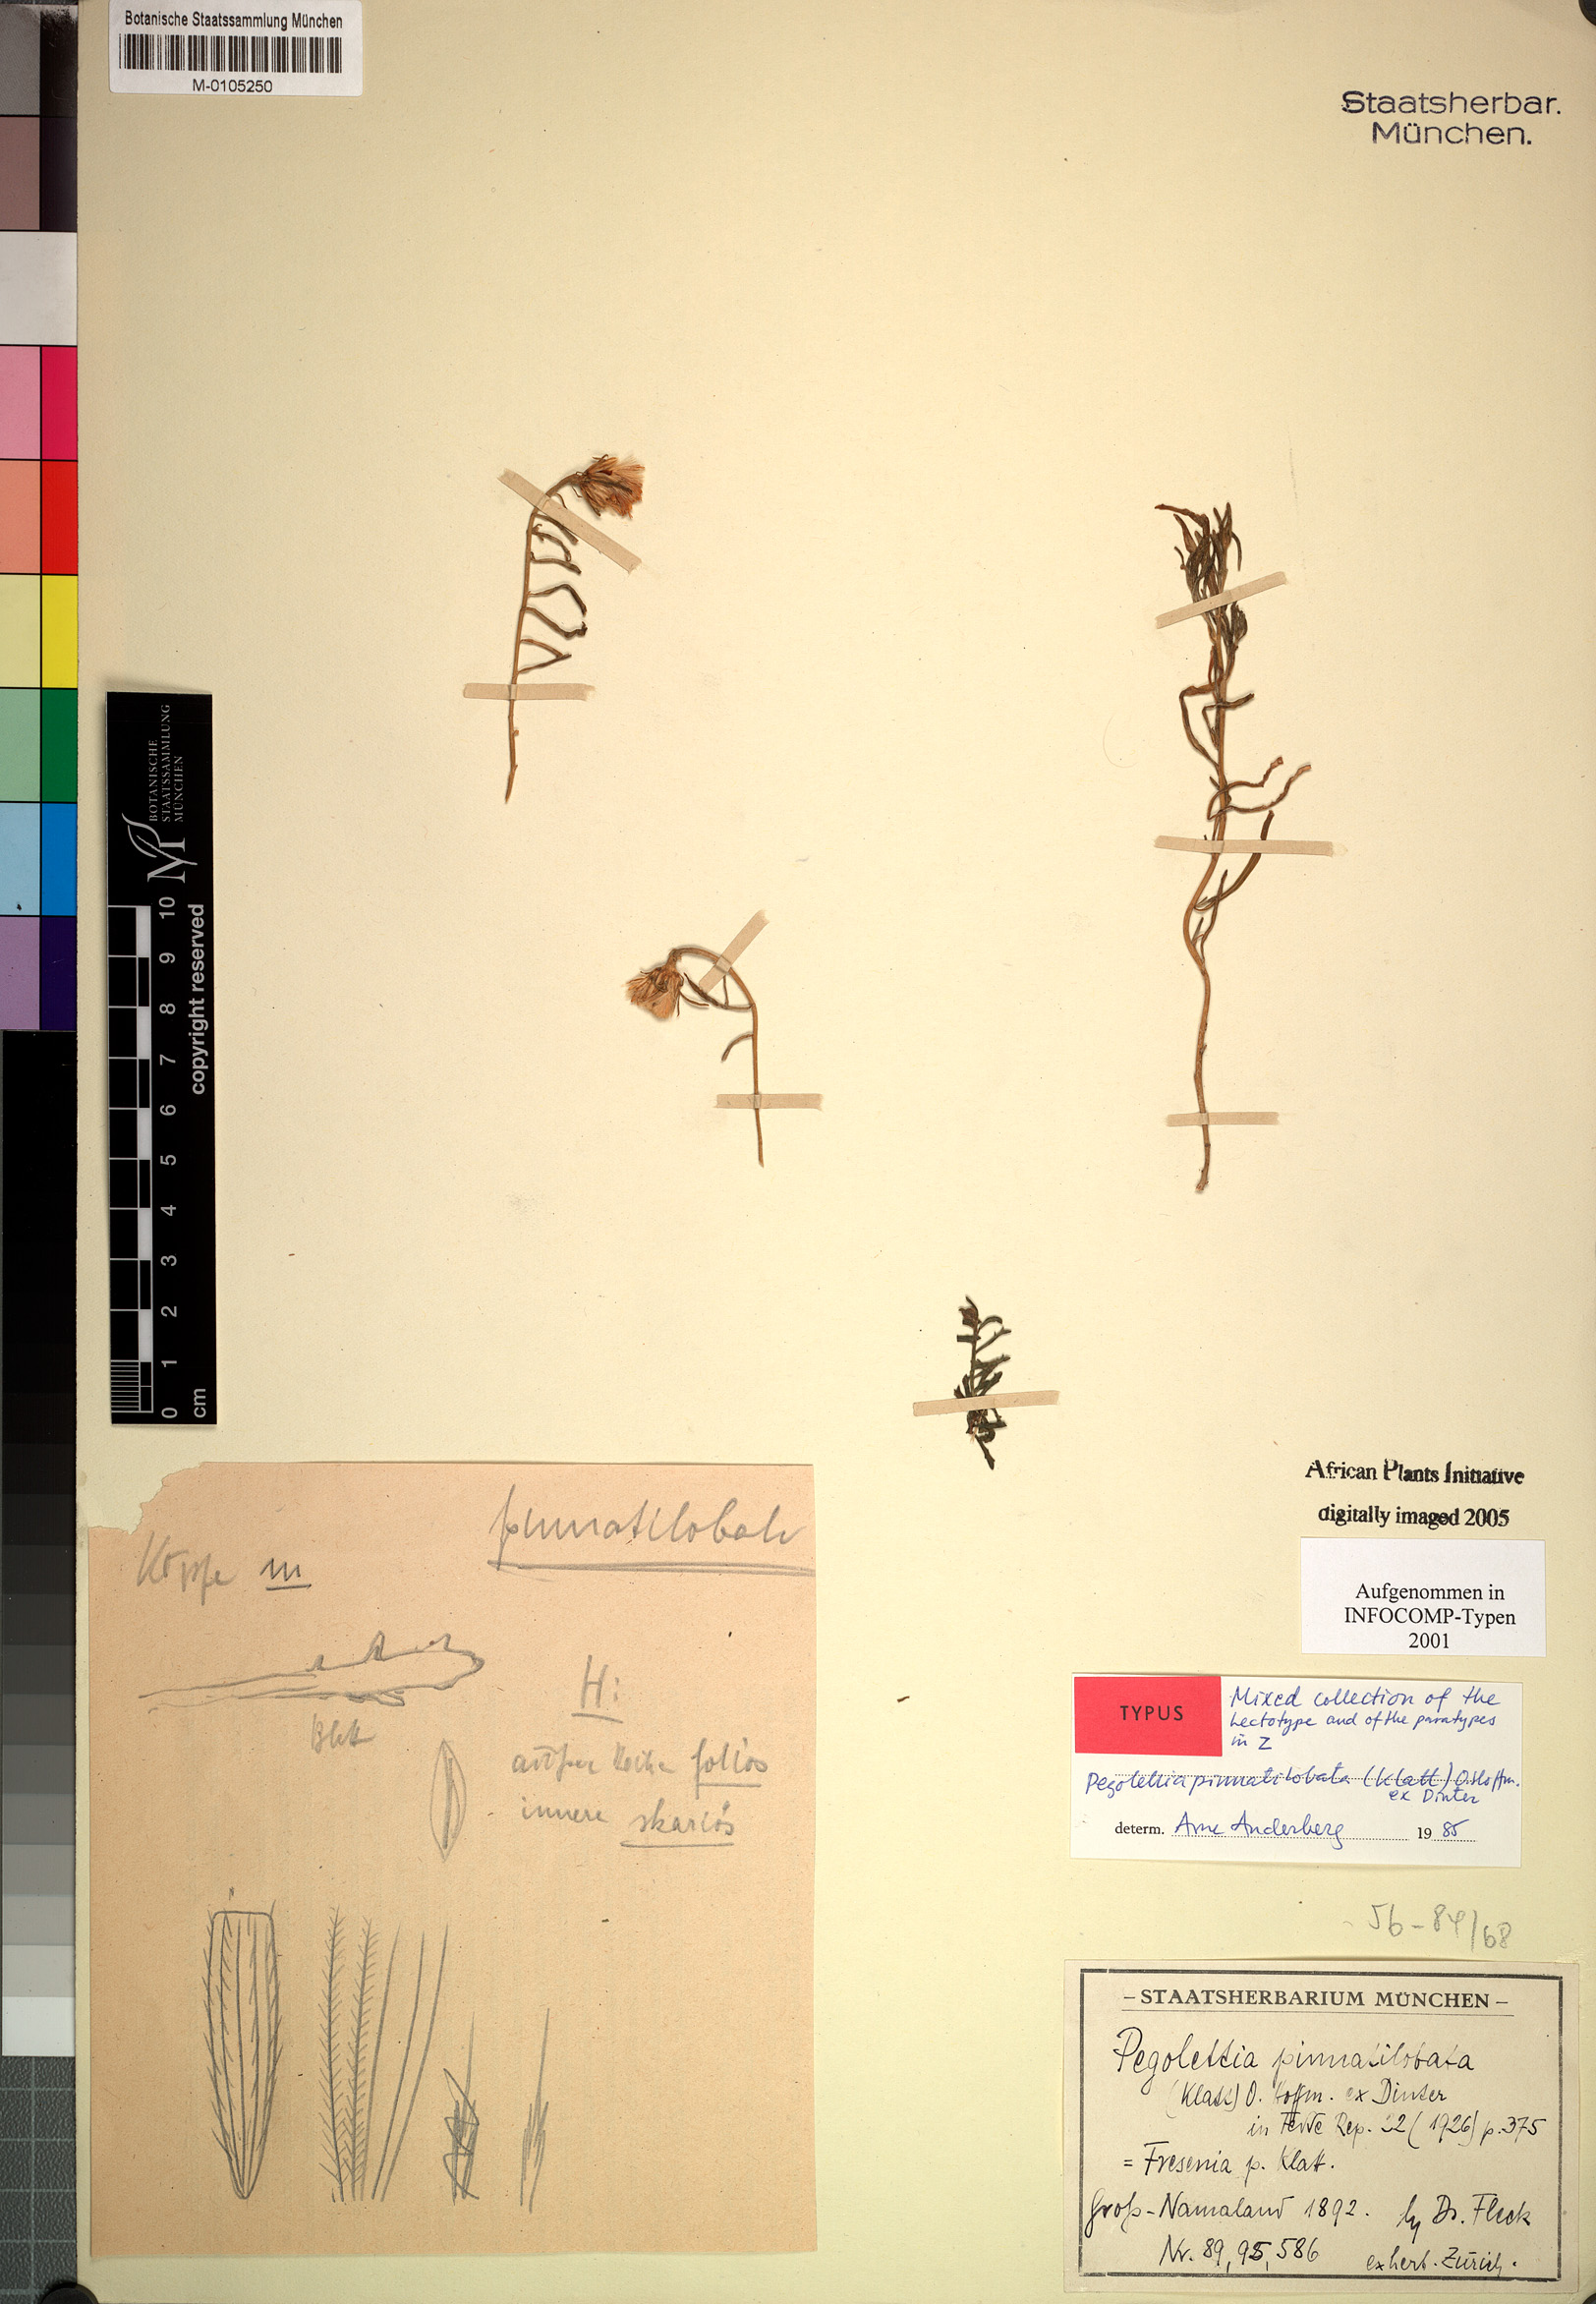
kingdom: Plantae
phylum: Tracheophyta
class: Magnoliopsida
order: Asterales
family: Asteraceae
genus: Pegolettia
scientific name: Pegolettia pinnatilobata
